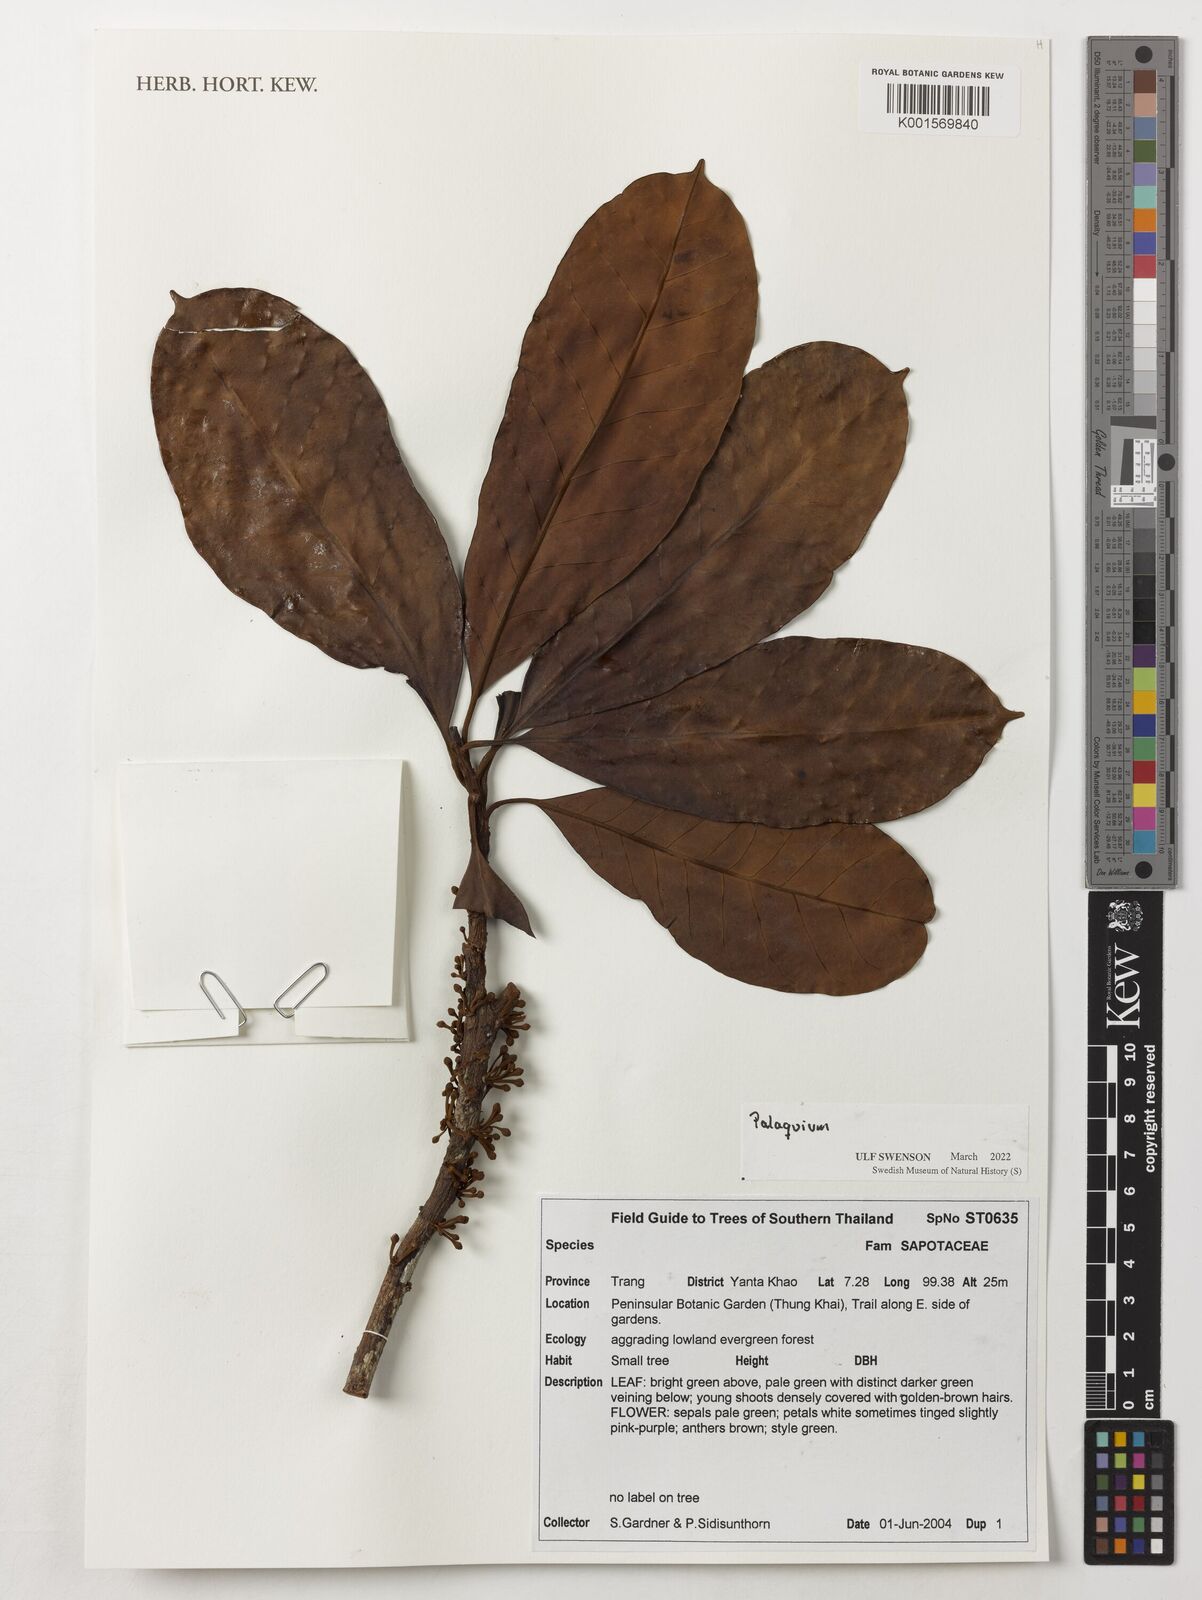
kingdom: Plantae
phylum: Tracheophyta
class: Magnoliopsida
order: Ericales
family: Sapotaceae
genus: Palaquium
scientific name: Palaquium
